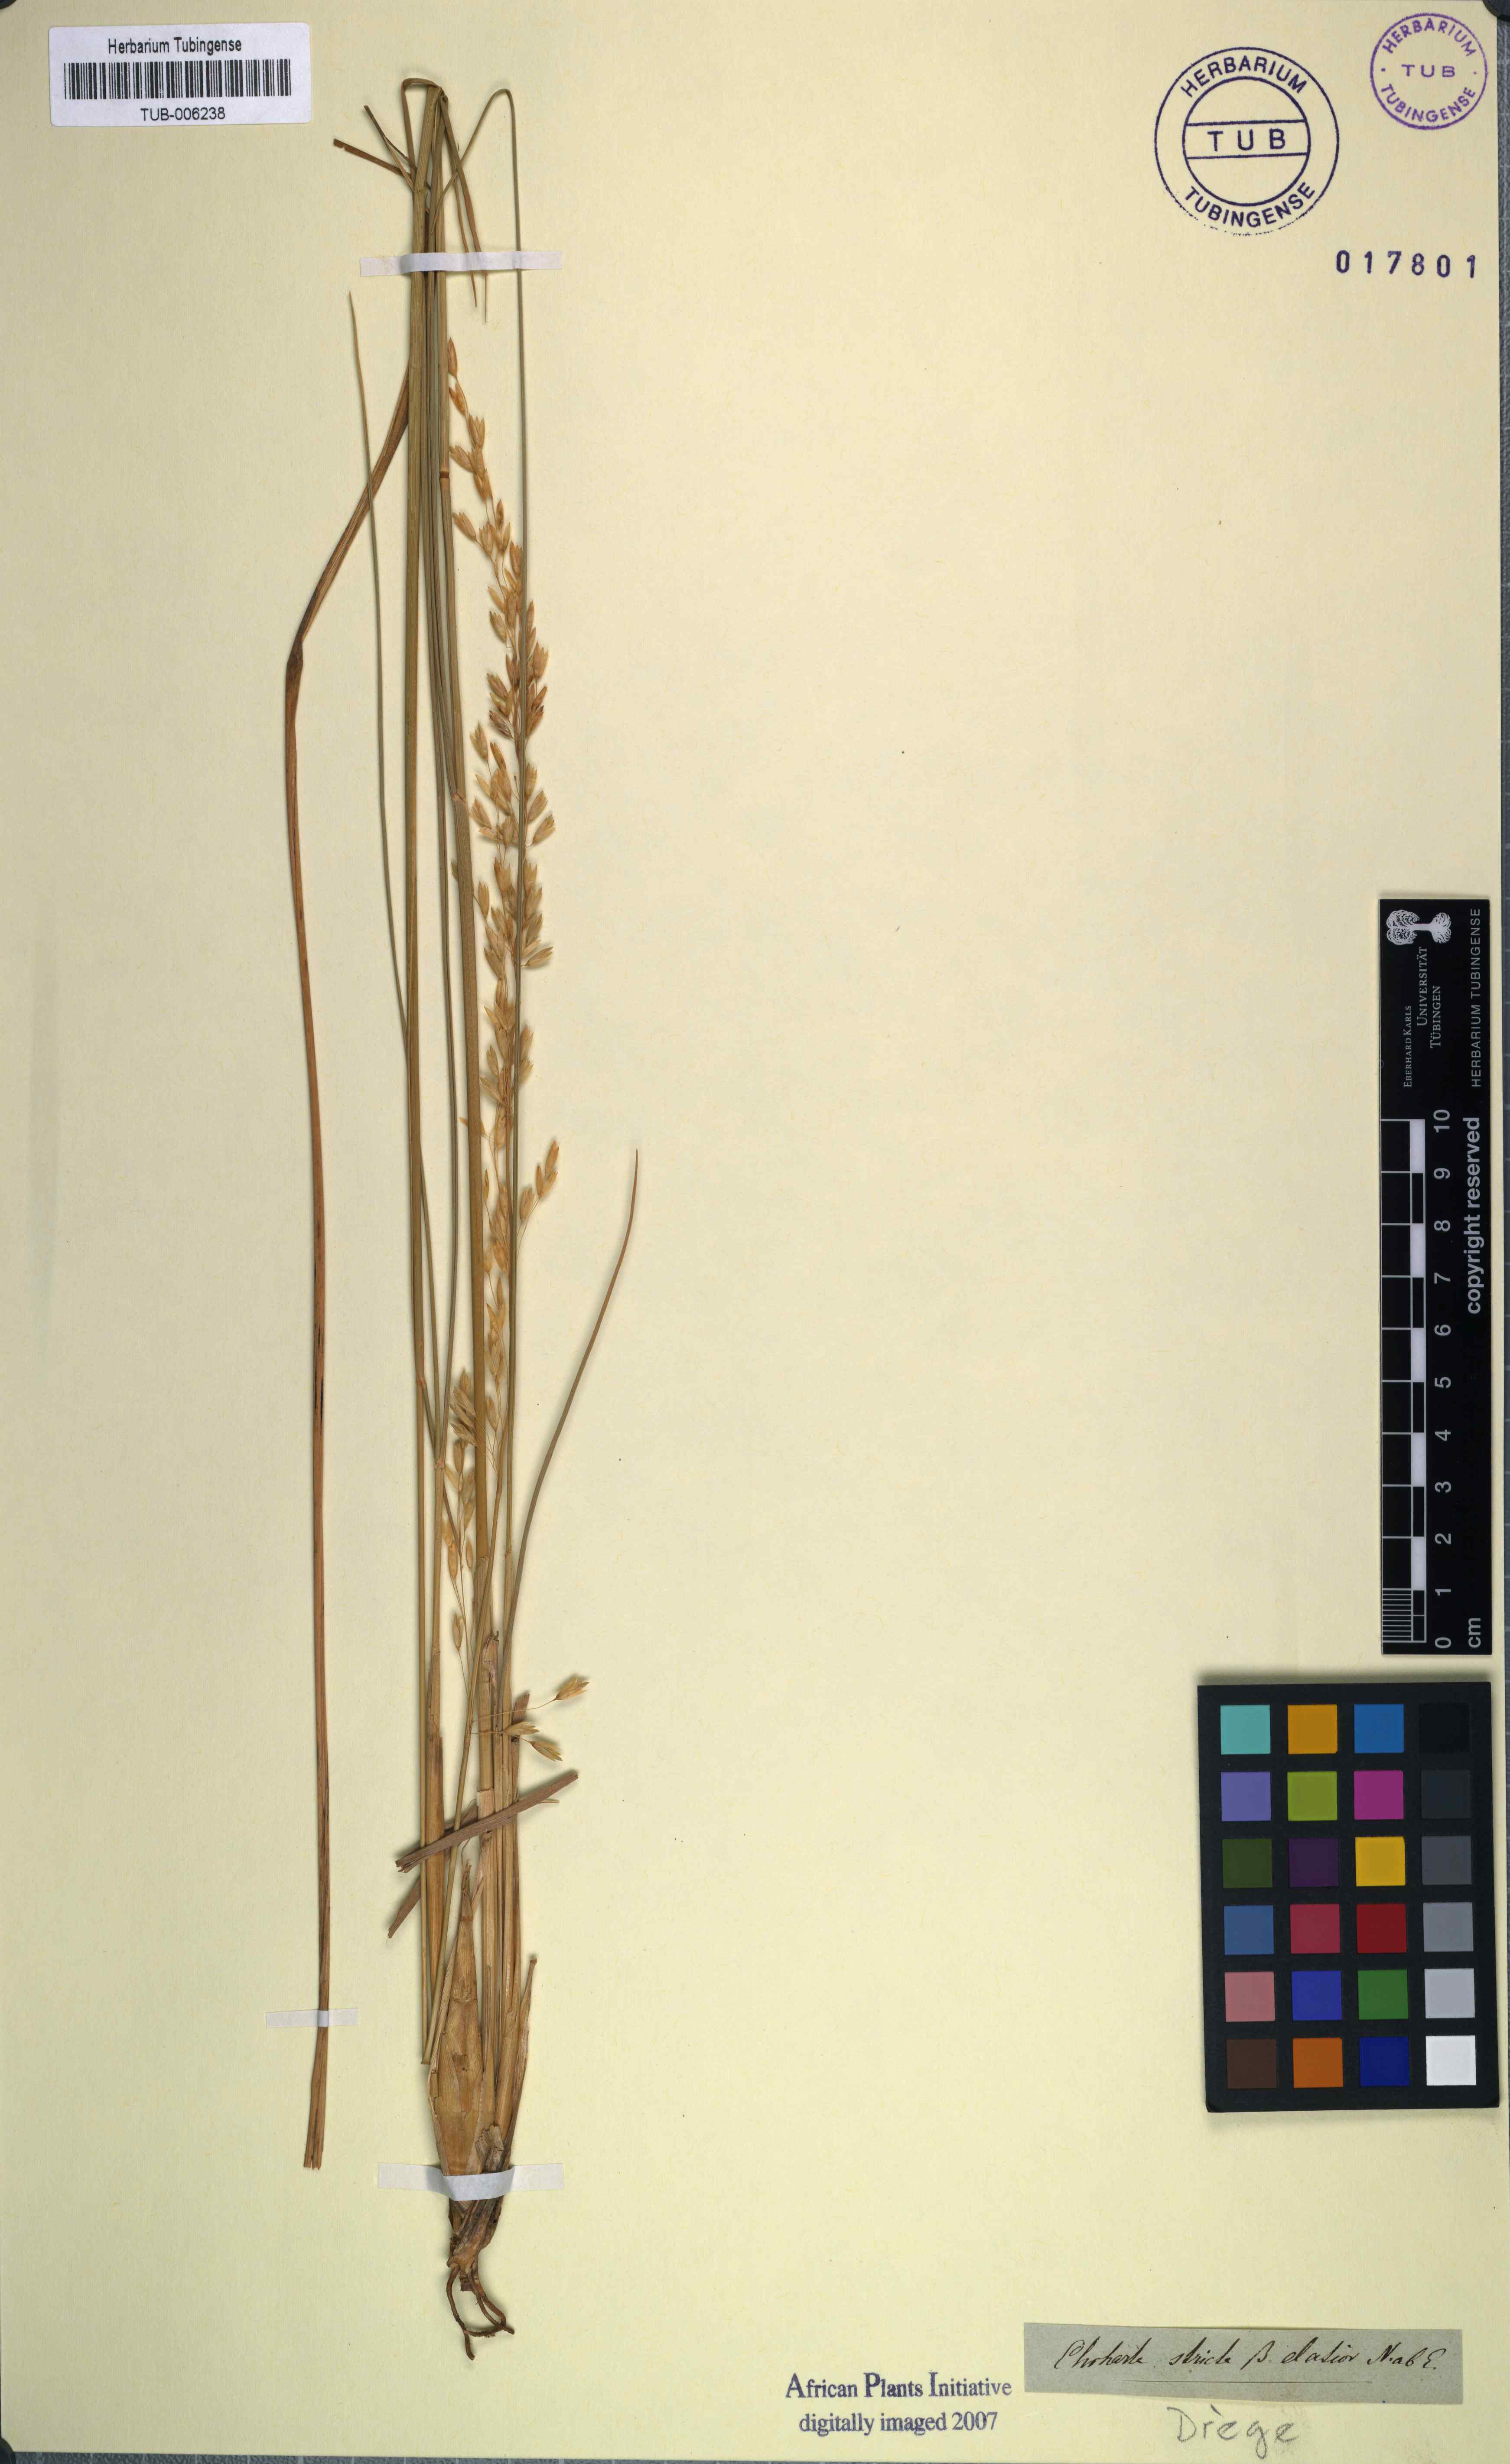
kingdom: Plantae
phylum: Tracheophyta
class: Liliopsida
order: Poales
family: Poaceae
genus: Ehrharta
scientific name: Ehrharta calycina
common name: Perennial veldtgrass
